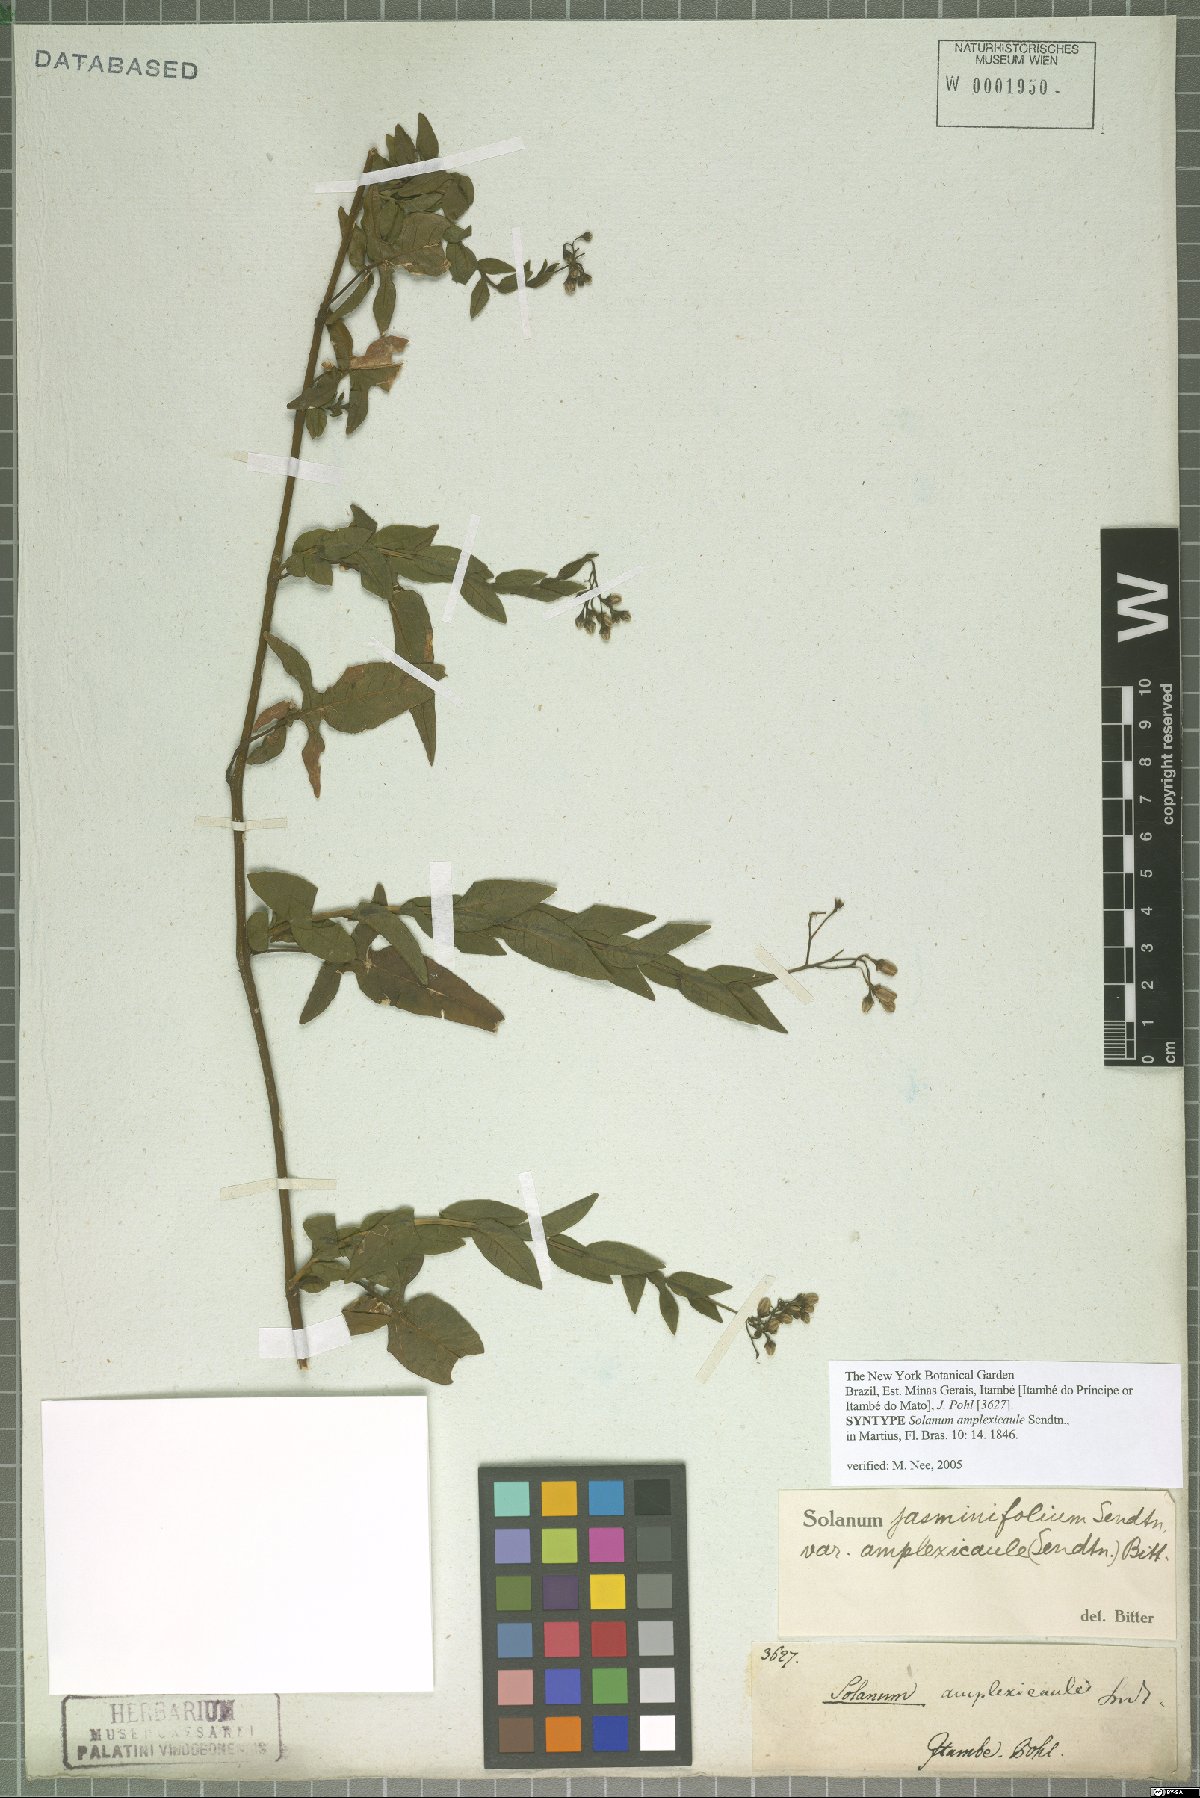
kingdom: Plantae
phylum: Tracheophyta
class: Magnoliopsida
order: Solanales
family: Solanaceae
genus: Solanum
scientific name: Solanum viscosissimum
